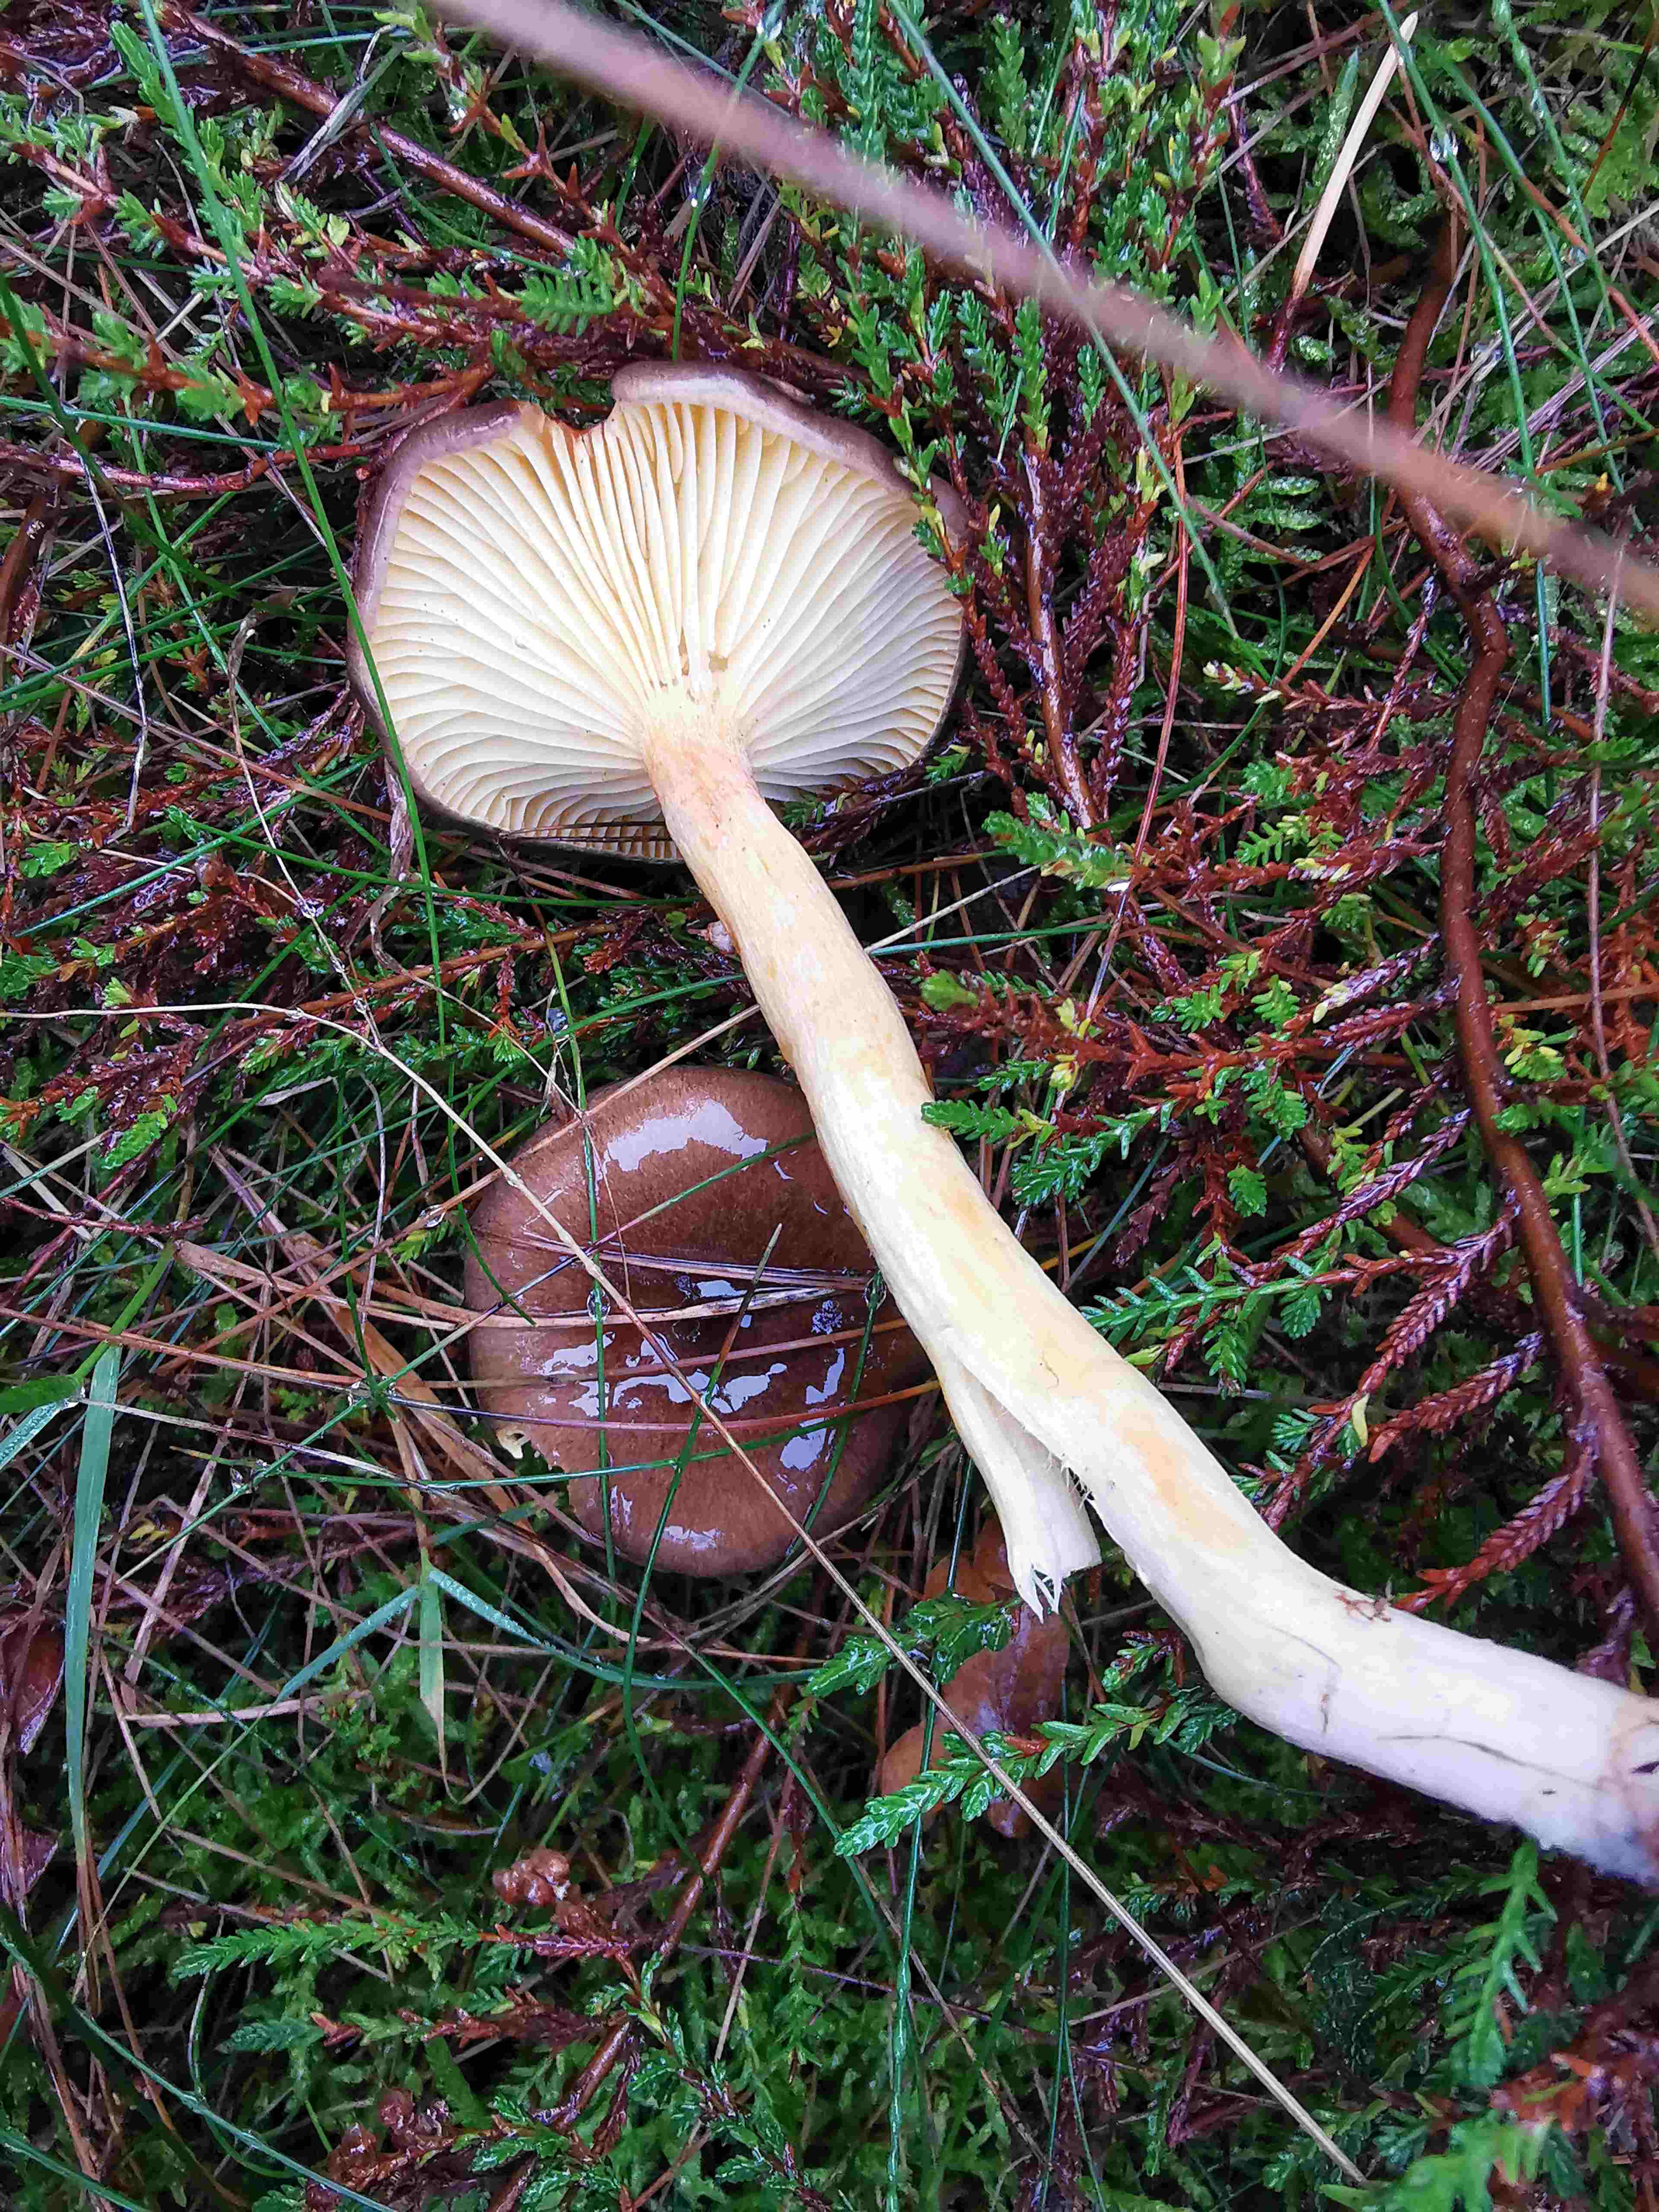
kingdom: Fungi
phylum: Basidiomycota
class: Agaricomycetes
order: Agaricales
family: Hygrophoraceae
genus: Hygrophorus
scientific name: Hygrophorus hypothejus
